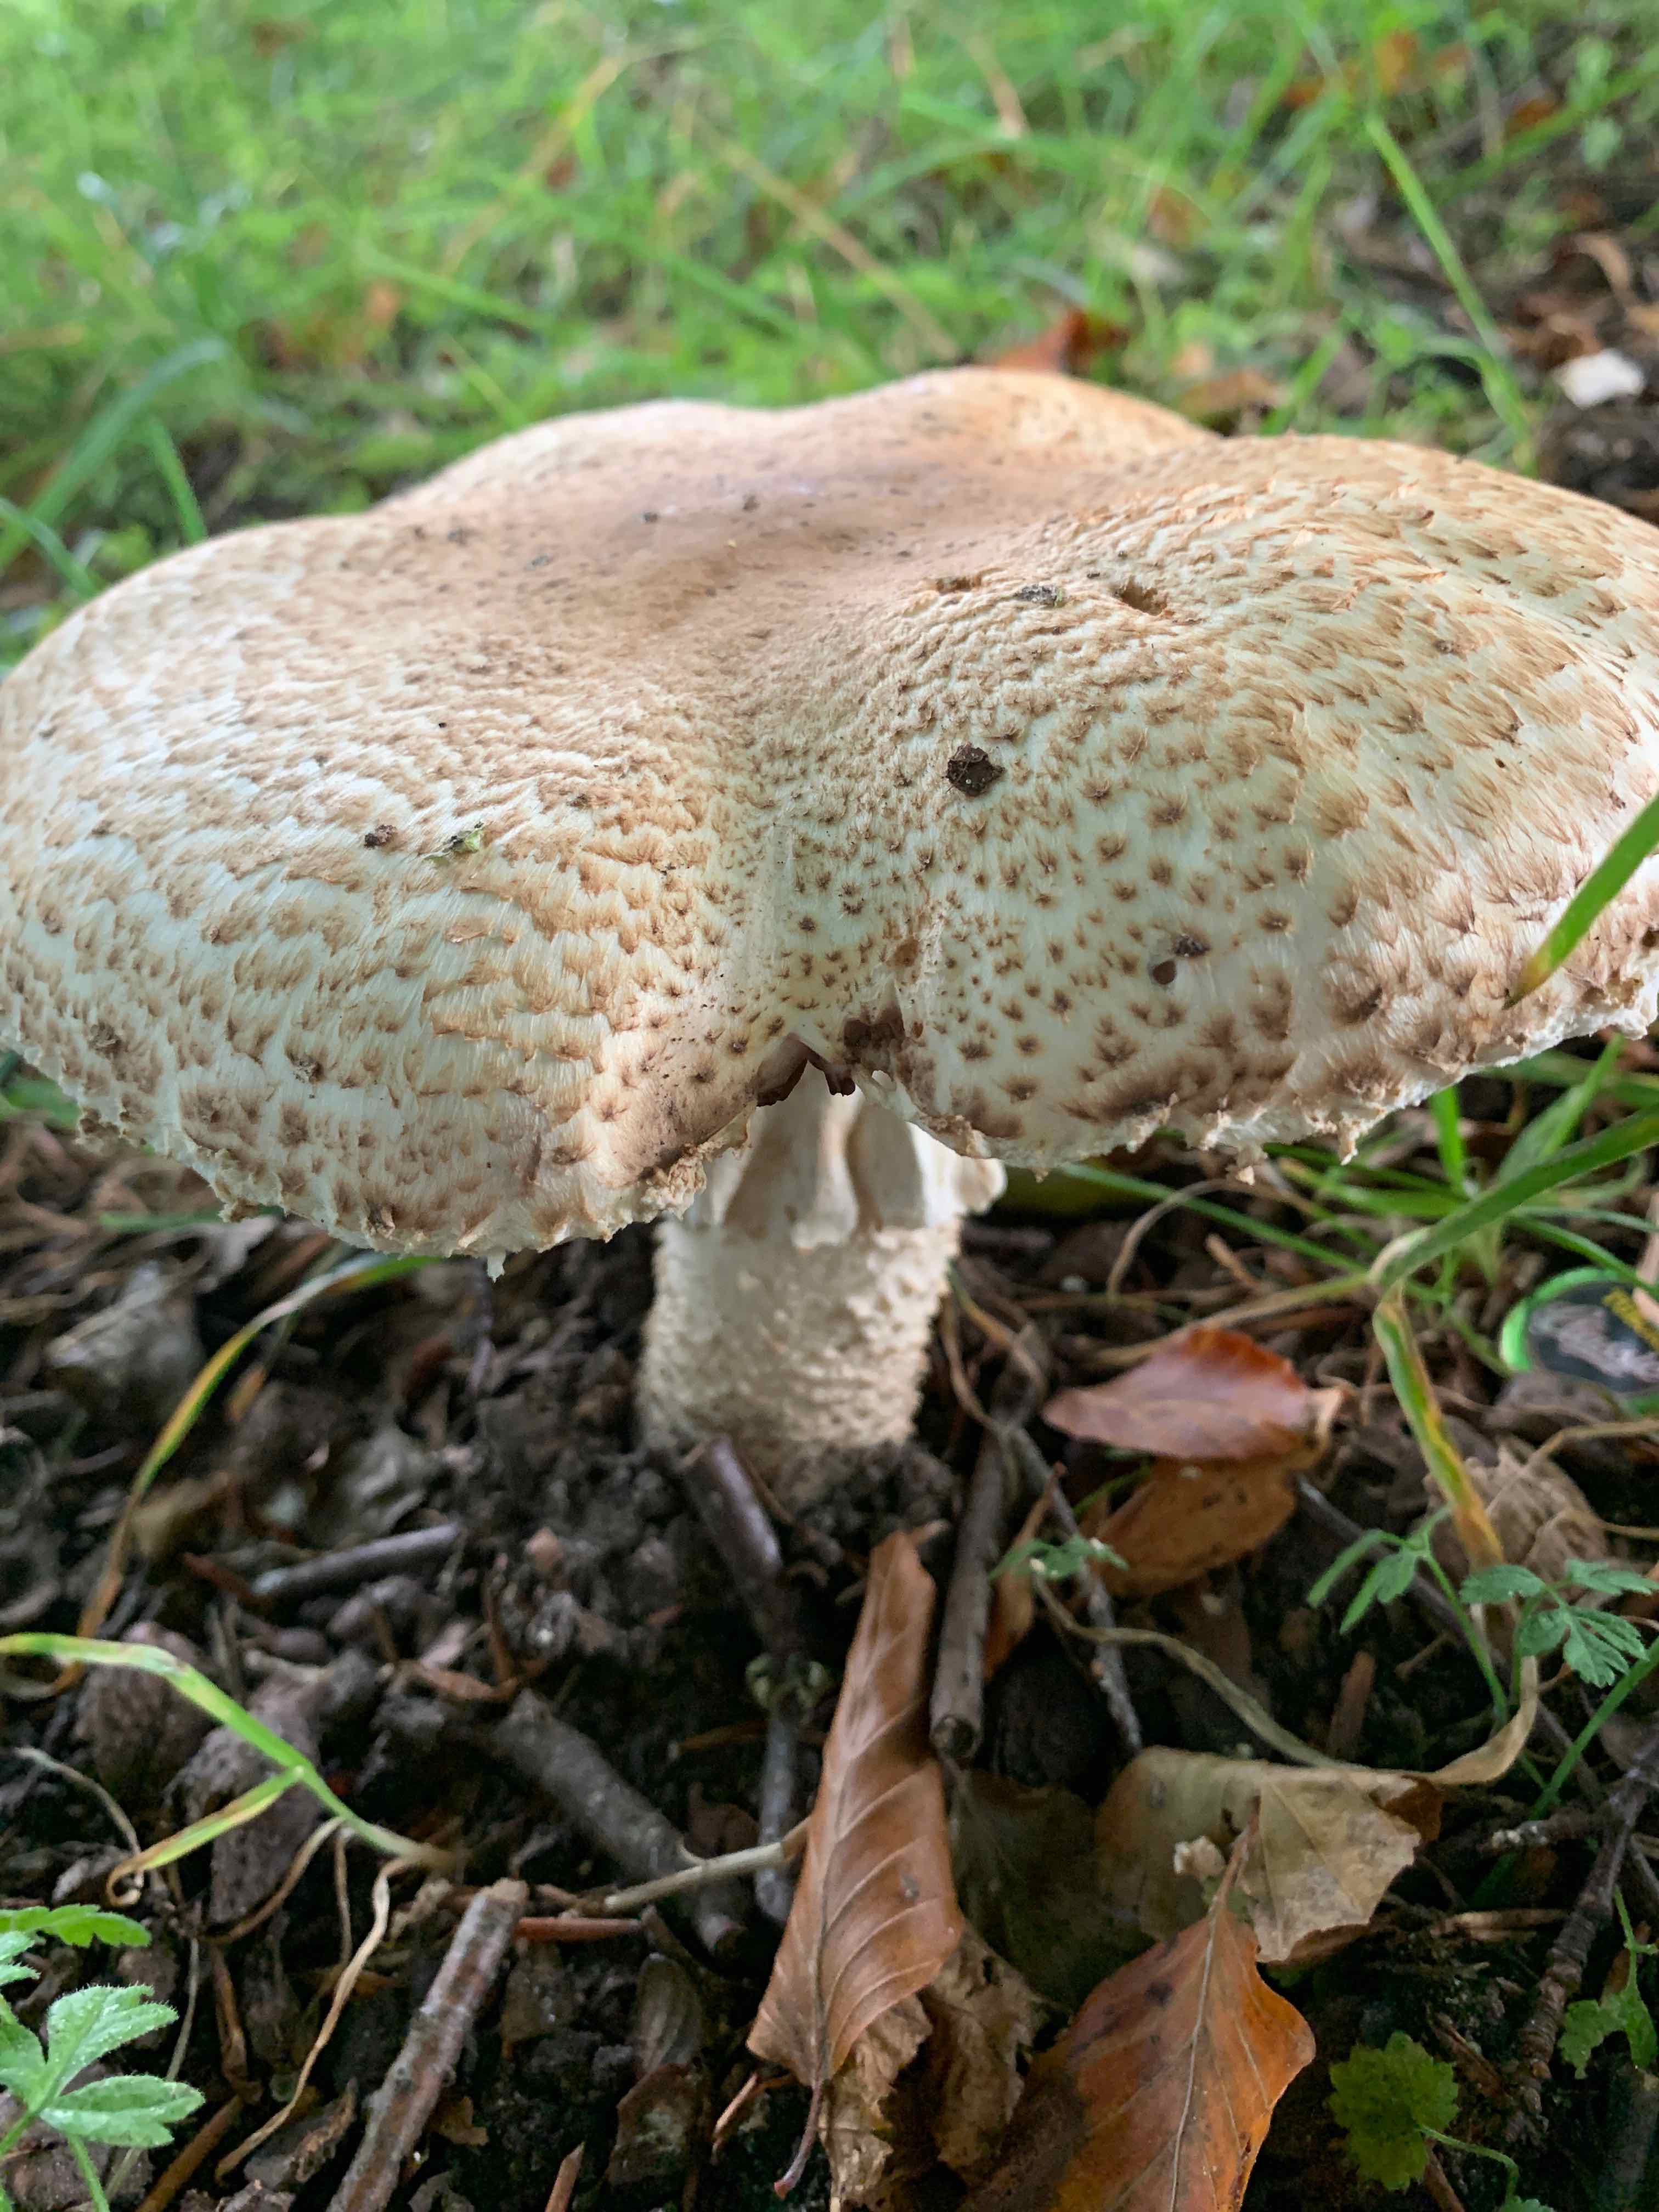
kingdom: Fungi
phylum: Basidiomycota
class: Agaricomycetes
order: Agaricales
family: Agaricaceae
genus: Agaricus
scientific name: Agaricus augustus
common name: prægtig champignon
